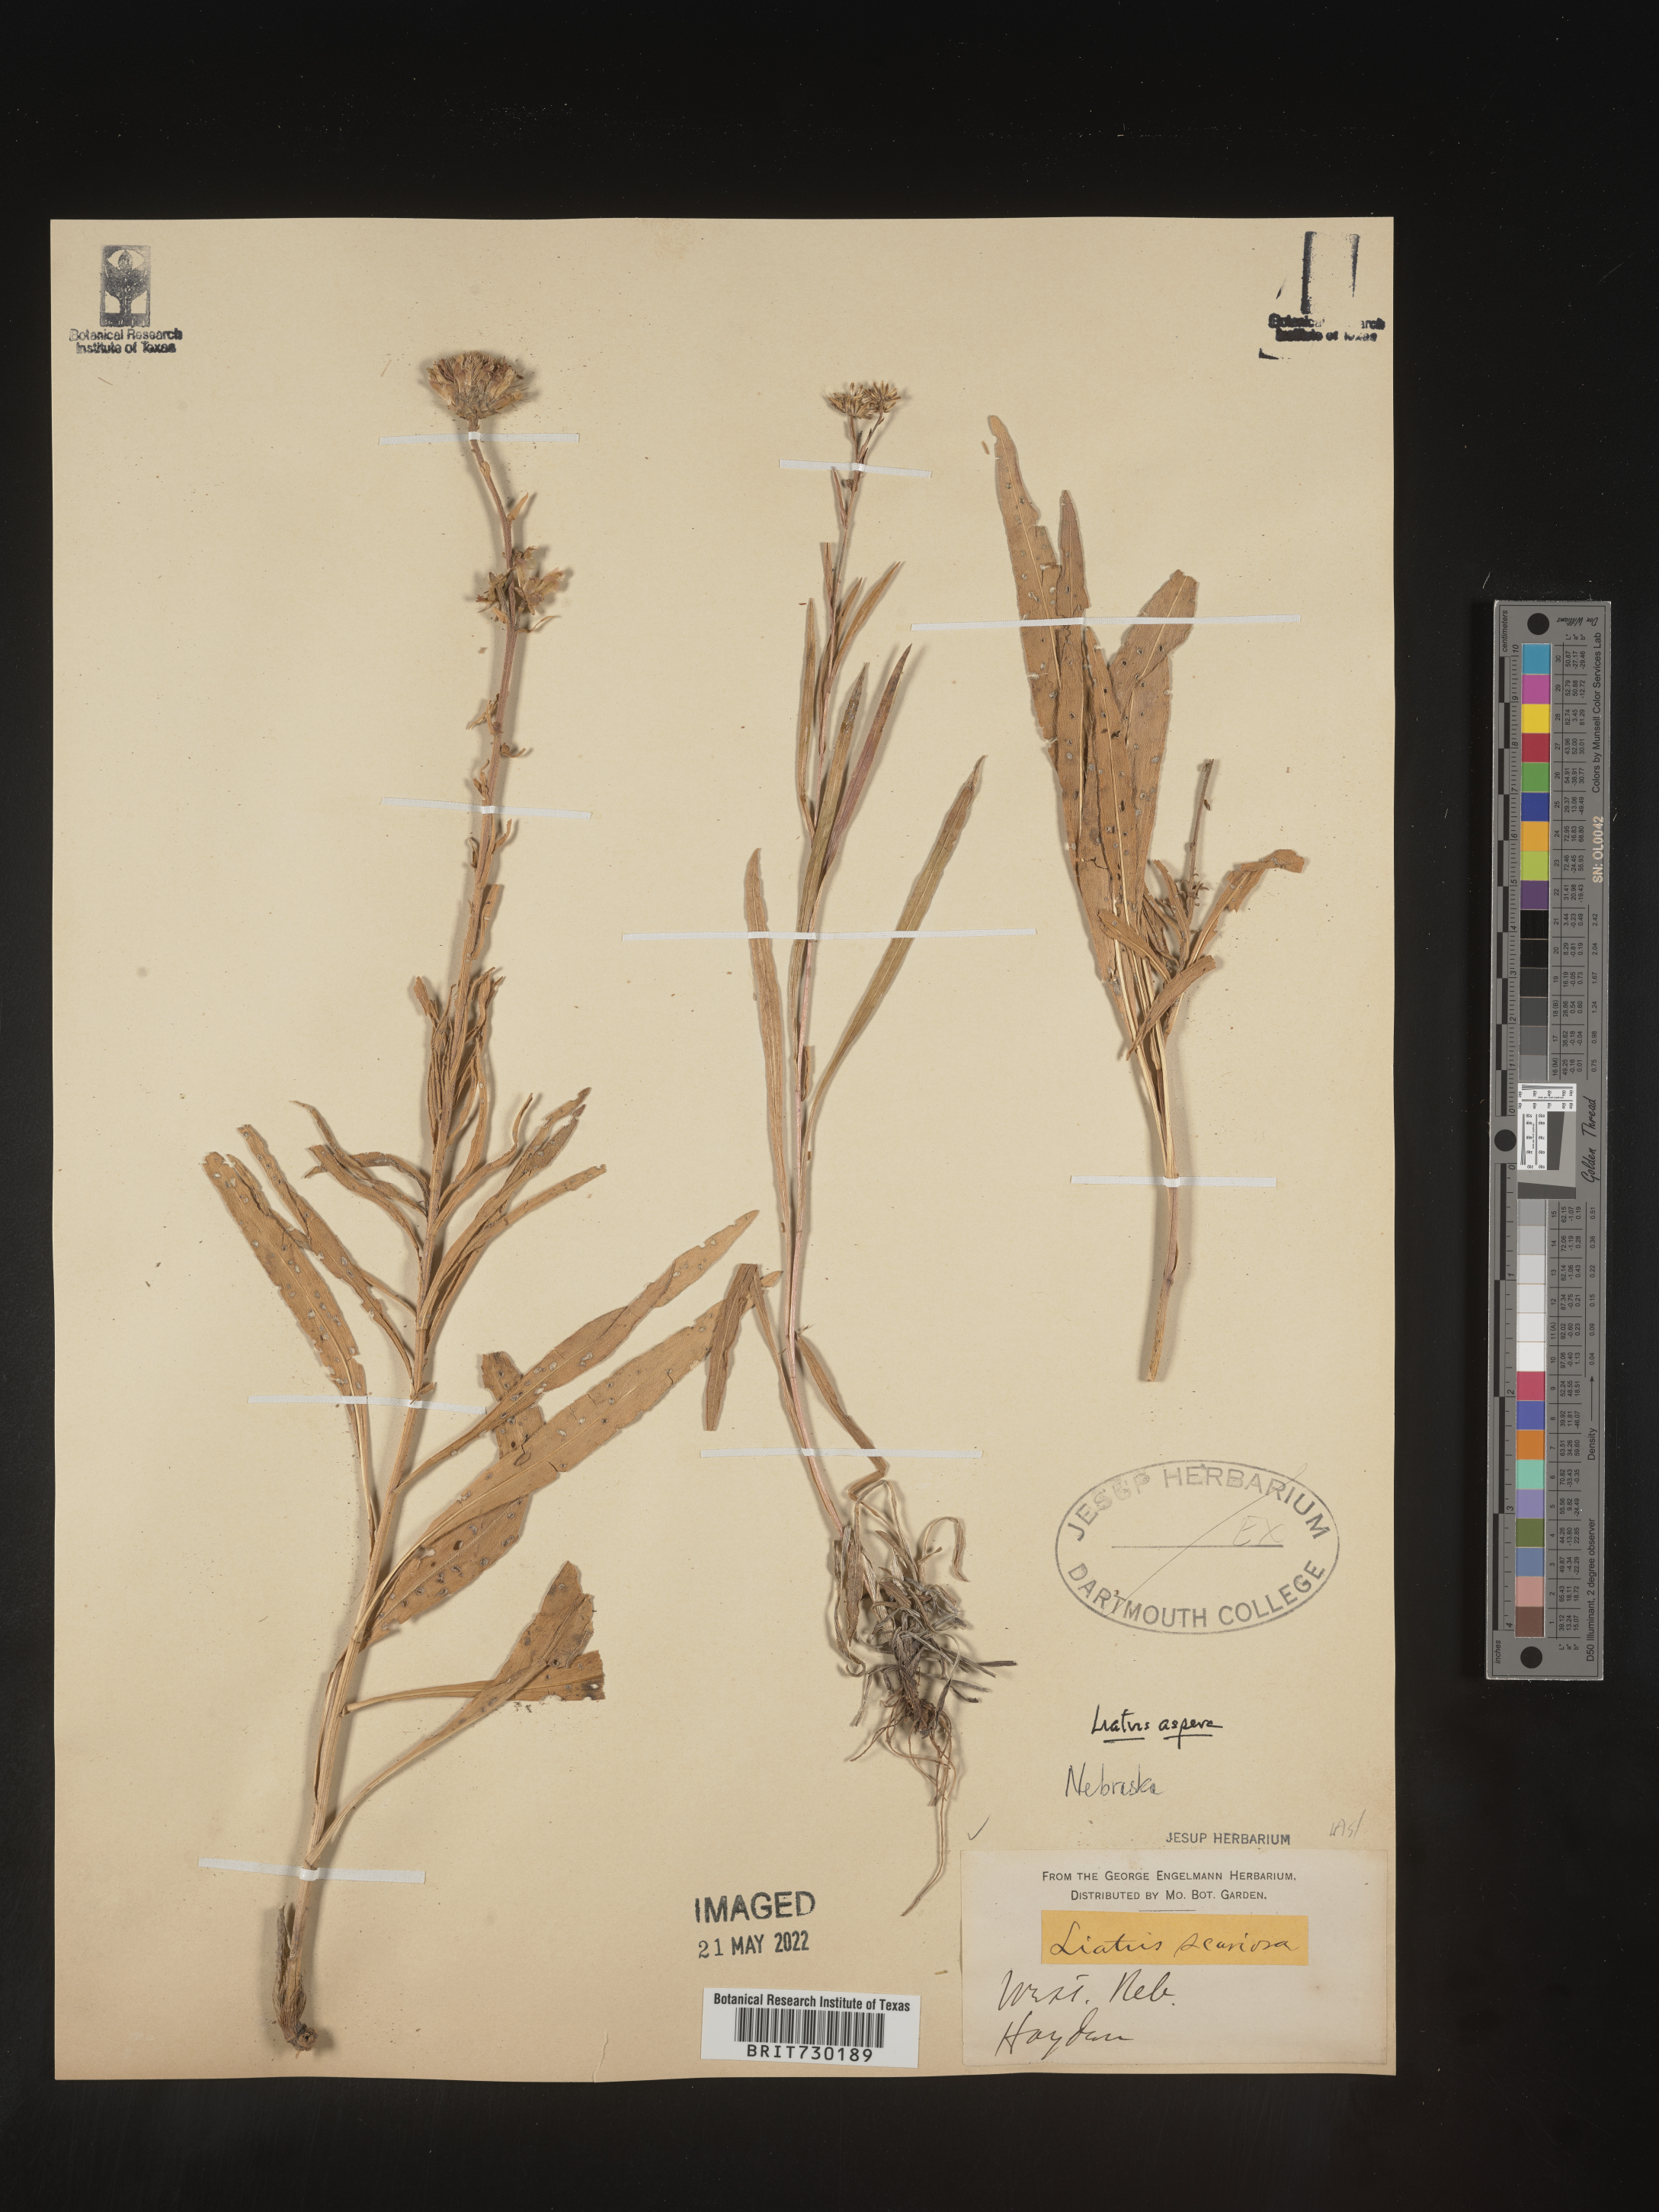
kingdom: Plantae
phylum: Tracheophyta
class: Magnoliopsida
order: Asterales
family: Asteraceae
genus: Liatris
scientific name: Liatris aspera
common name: Lacerate blazing-star
